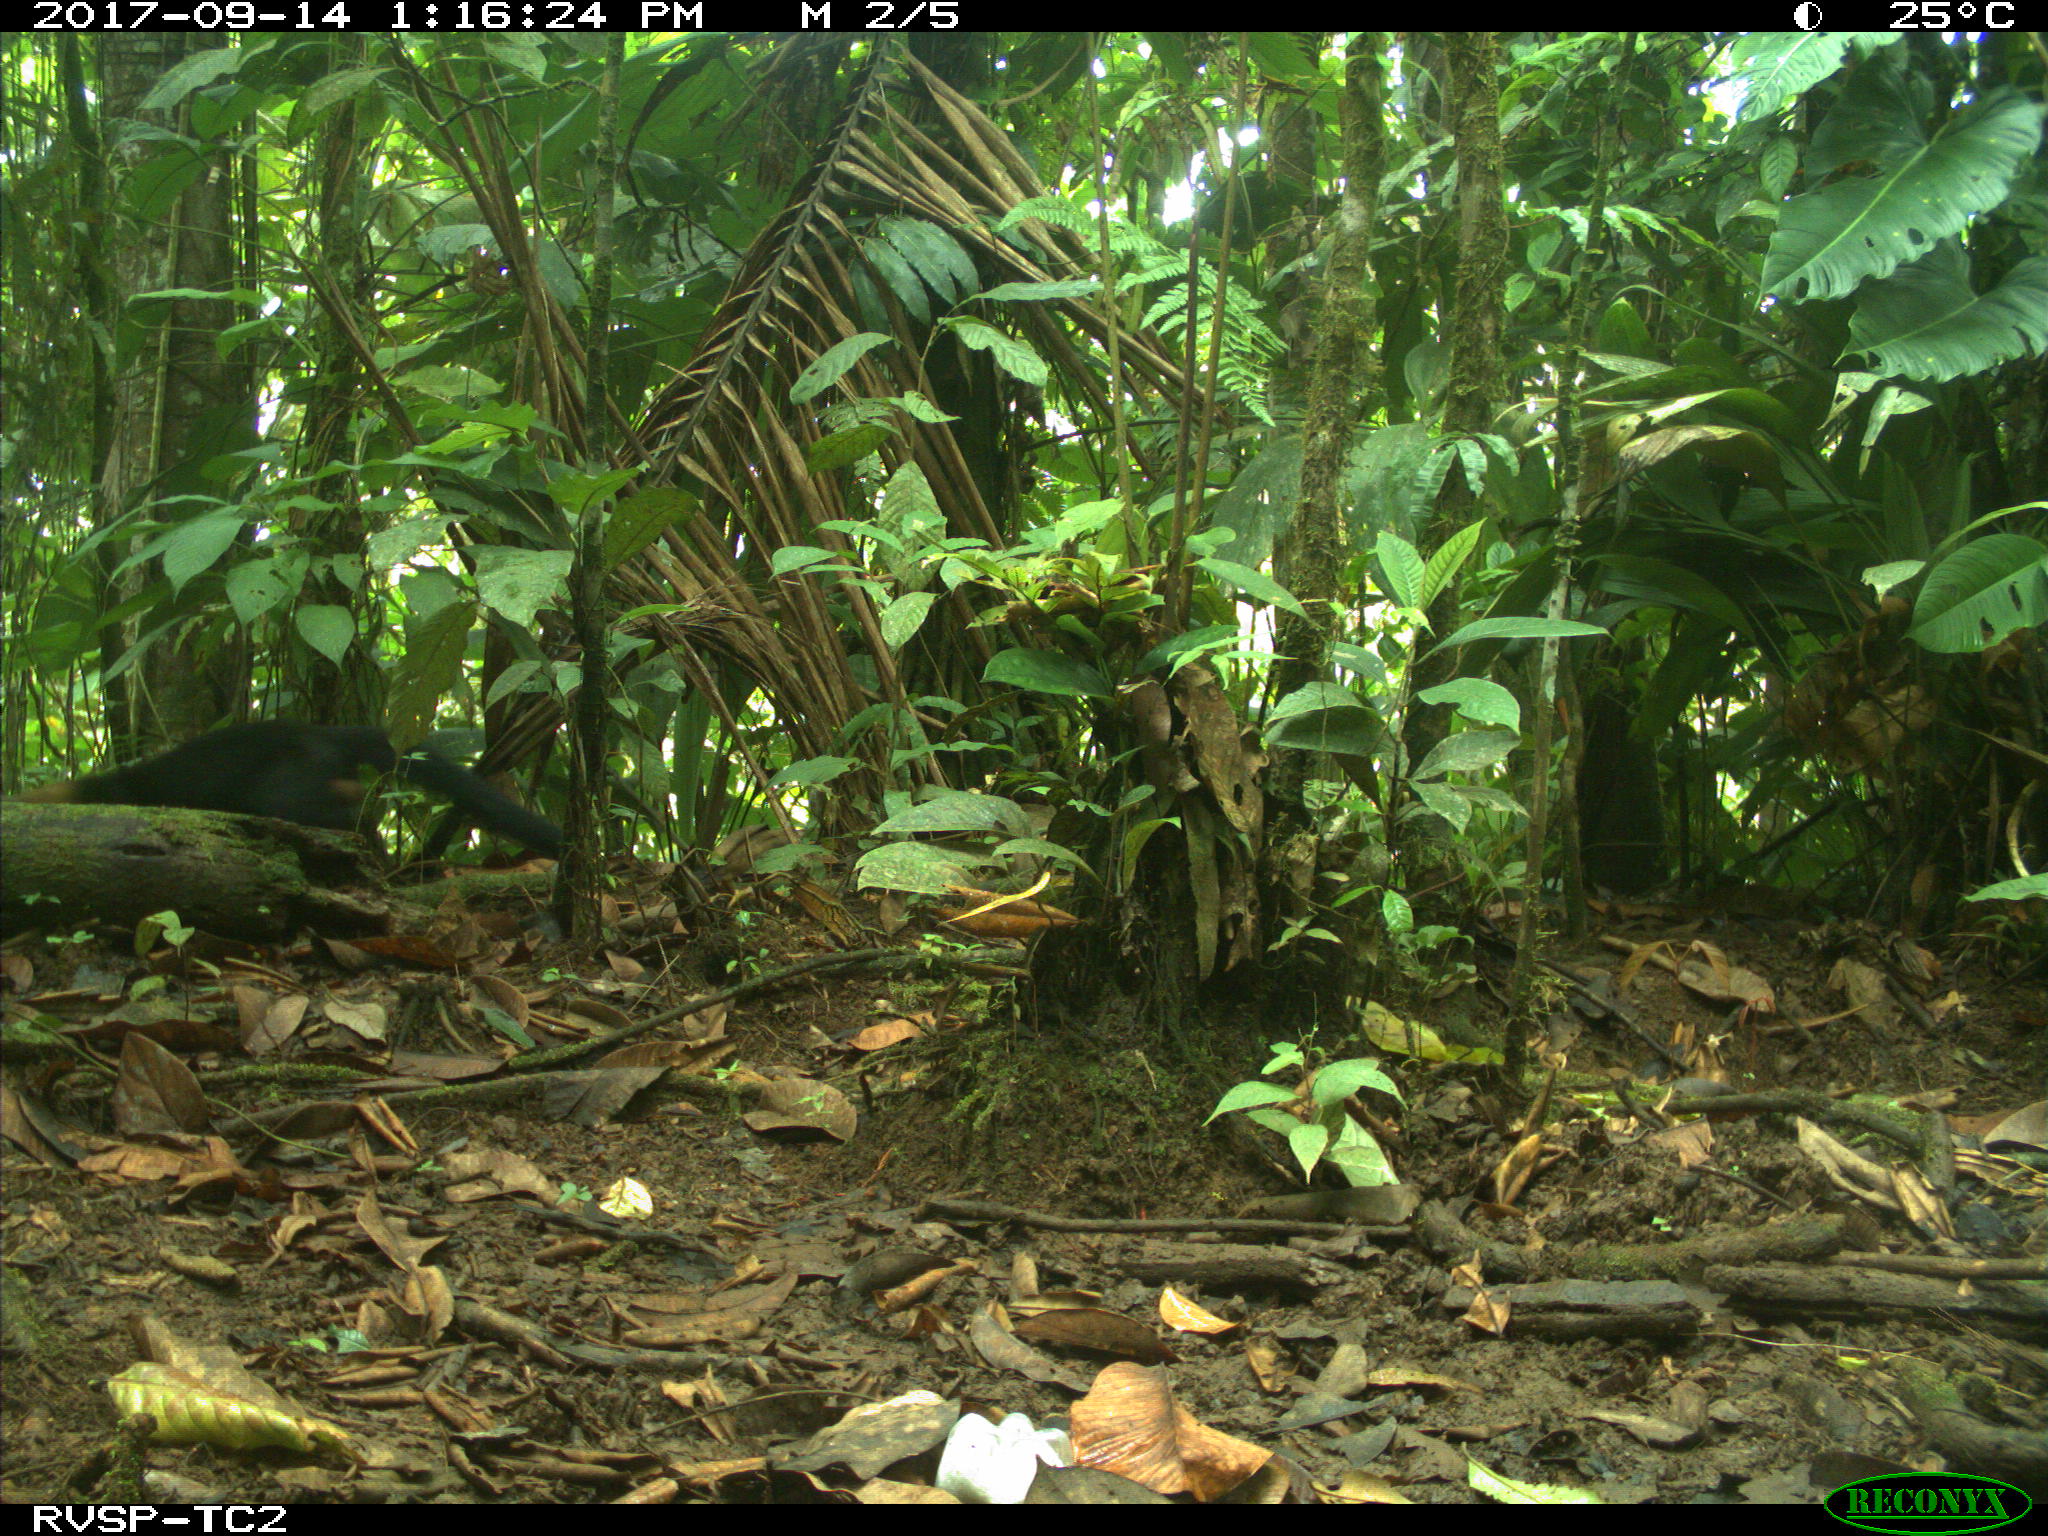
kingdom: Animalia
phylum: Chordata
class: Mammalia
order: Carnivora
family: Mustelidae
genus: Eira
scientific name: Eira barbara
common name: Tayra
